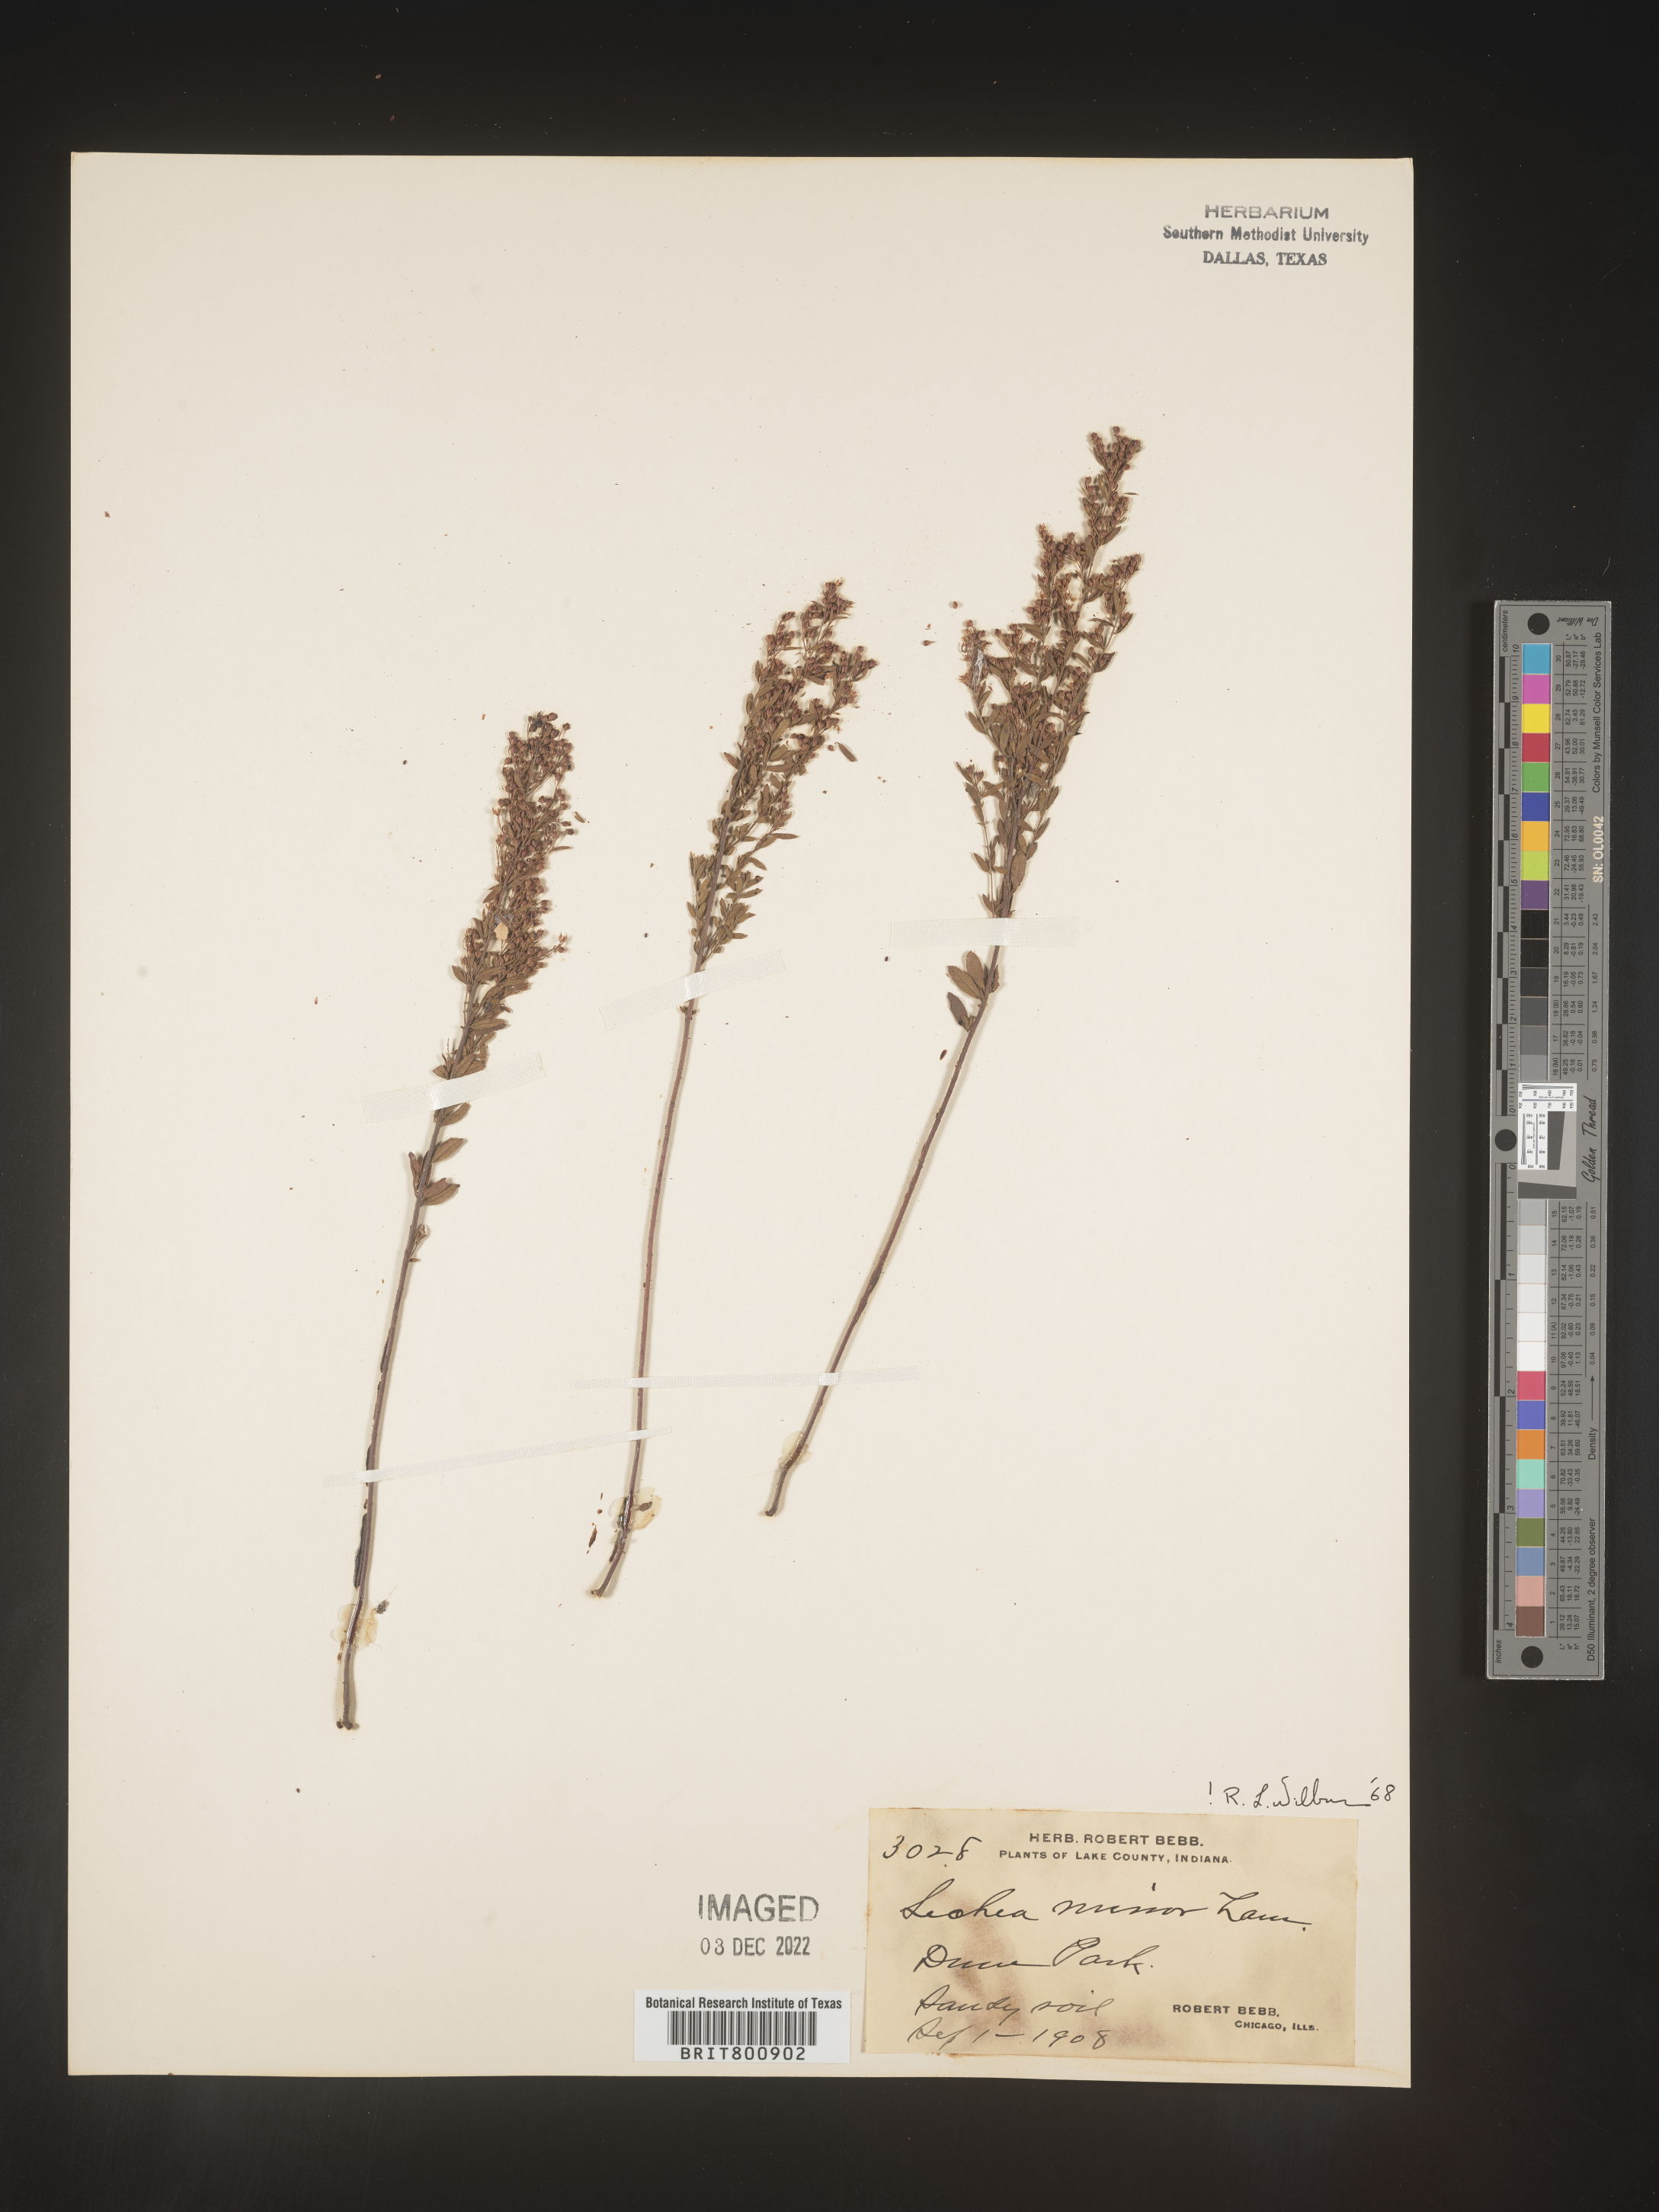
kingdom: Plantae
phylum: Tracheophyta
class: Magnoliopsida
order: Malvales
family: Cistaceae
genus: Lechea
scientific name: Lechea minor
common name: Thyme-leaf pinweed
